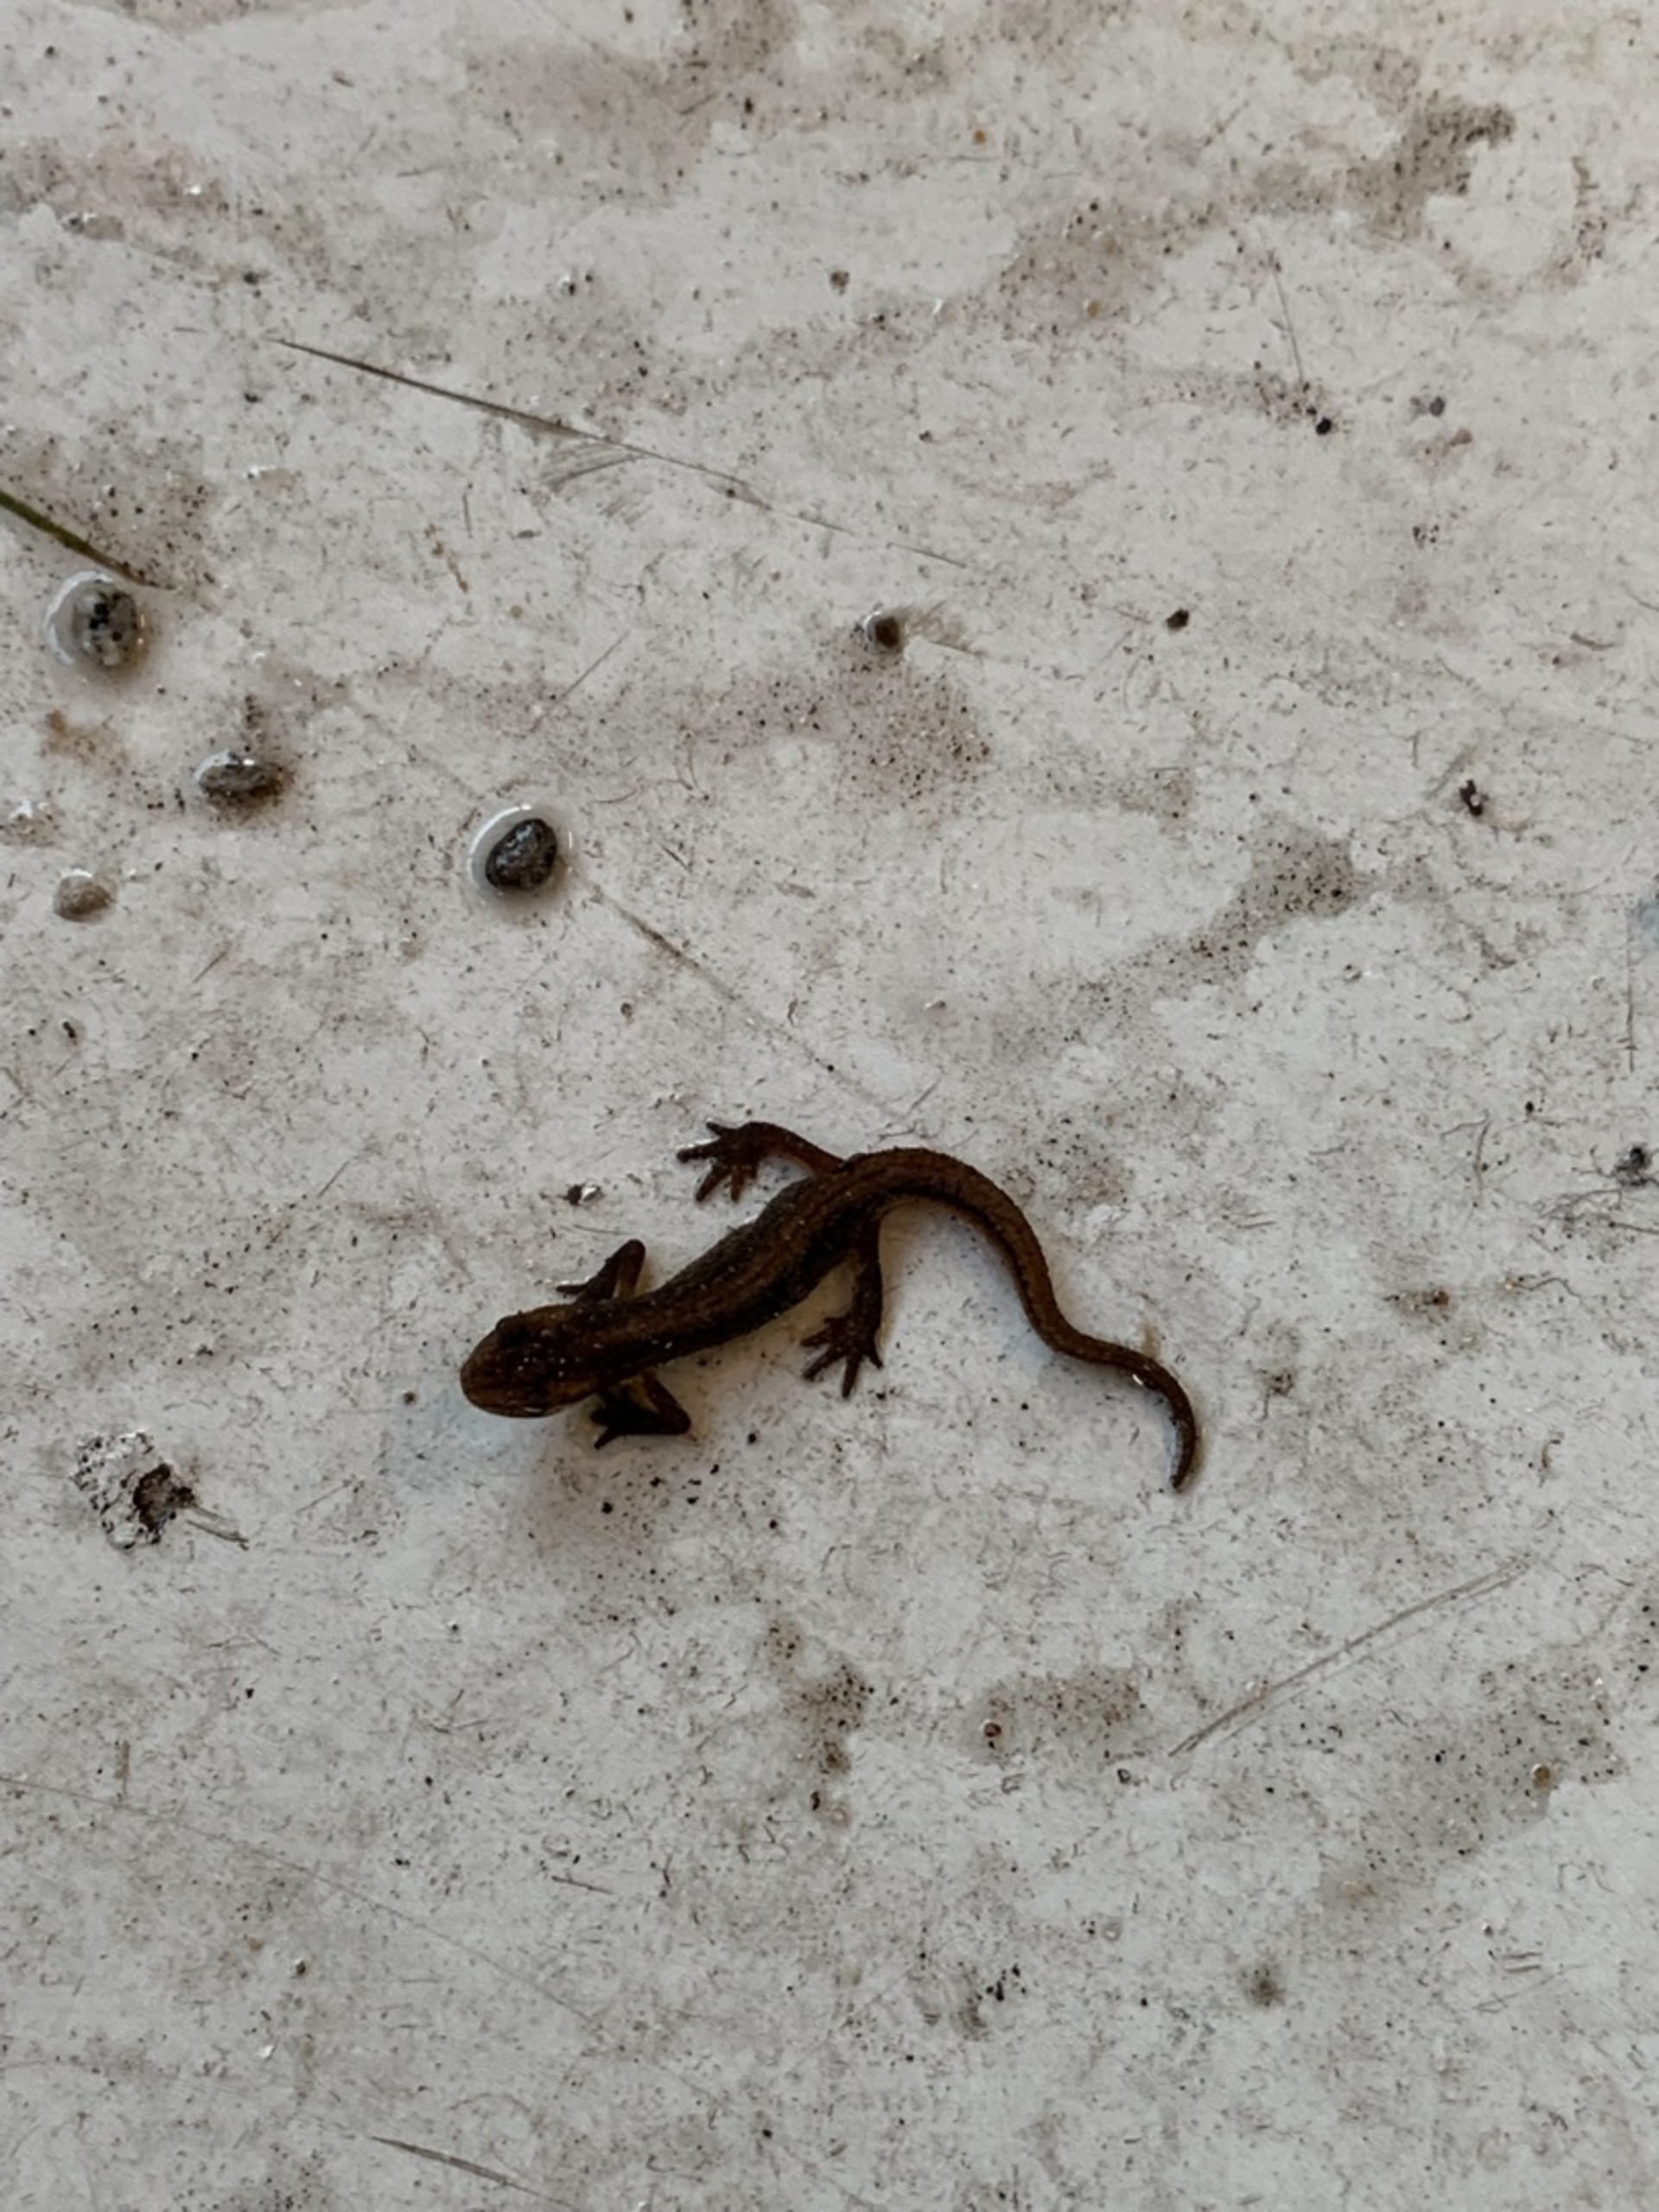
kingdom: Animalia
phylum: Chordata
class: Amphibia
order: Caudata
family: Salamandridae
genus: Lissotriton
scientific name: Lissotriton vulgaris
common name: Lille vandsalamander
